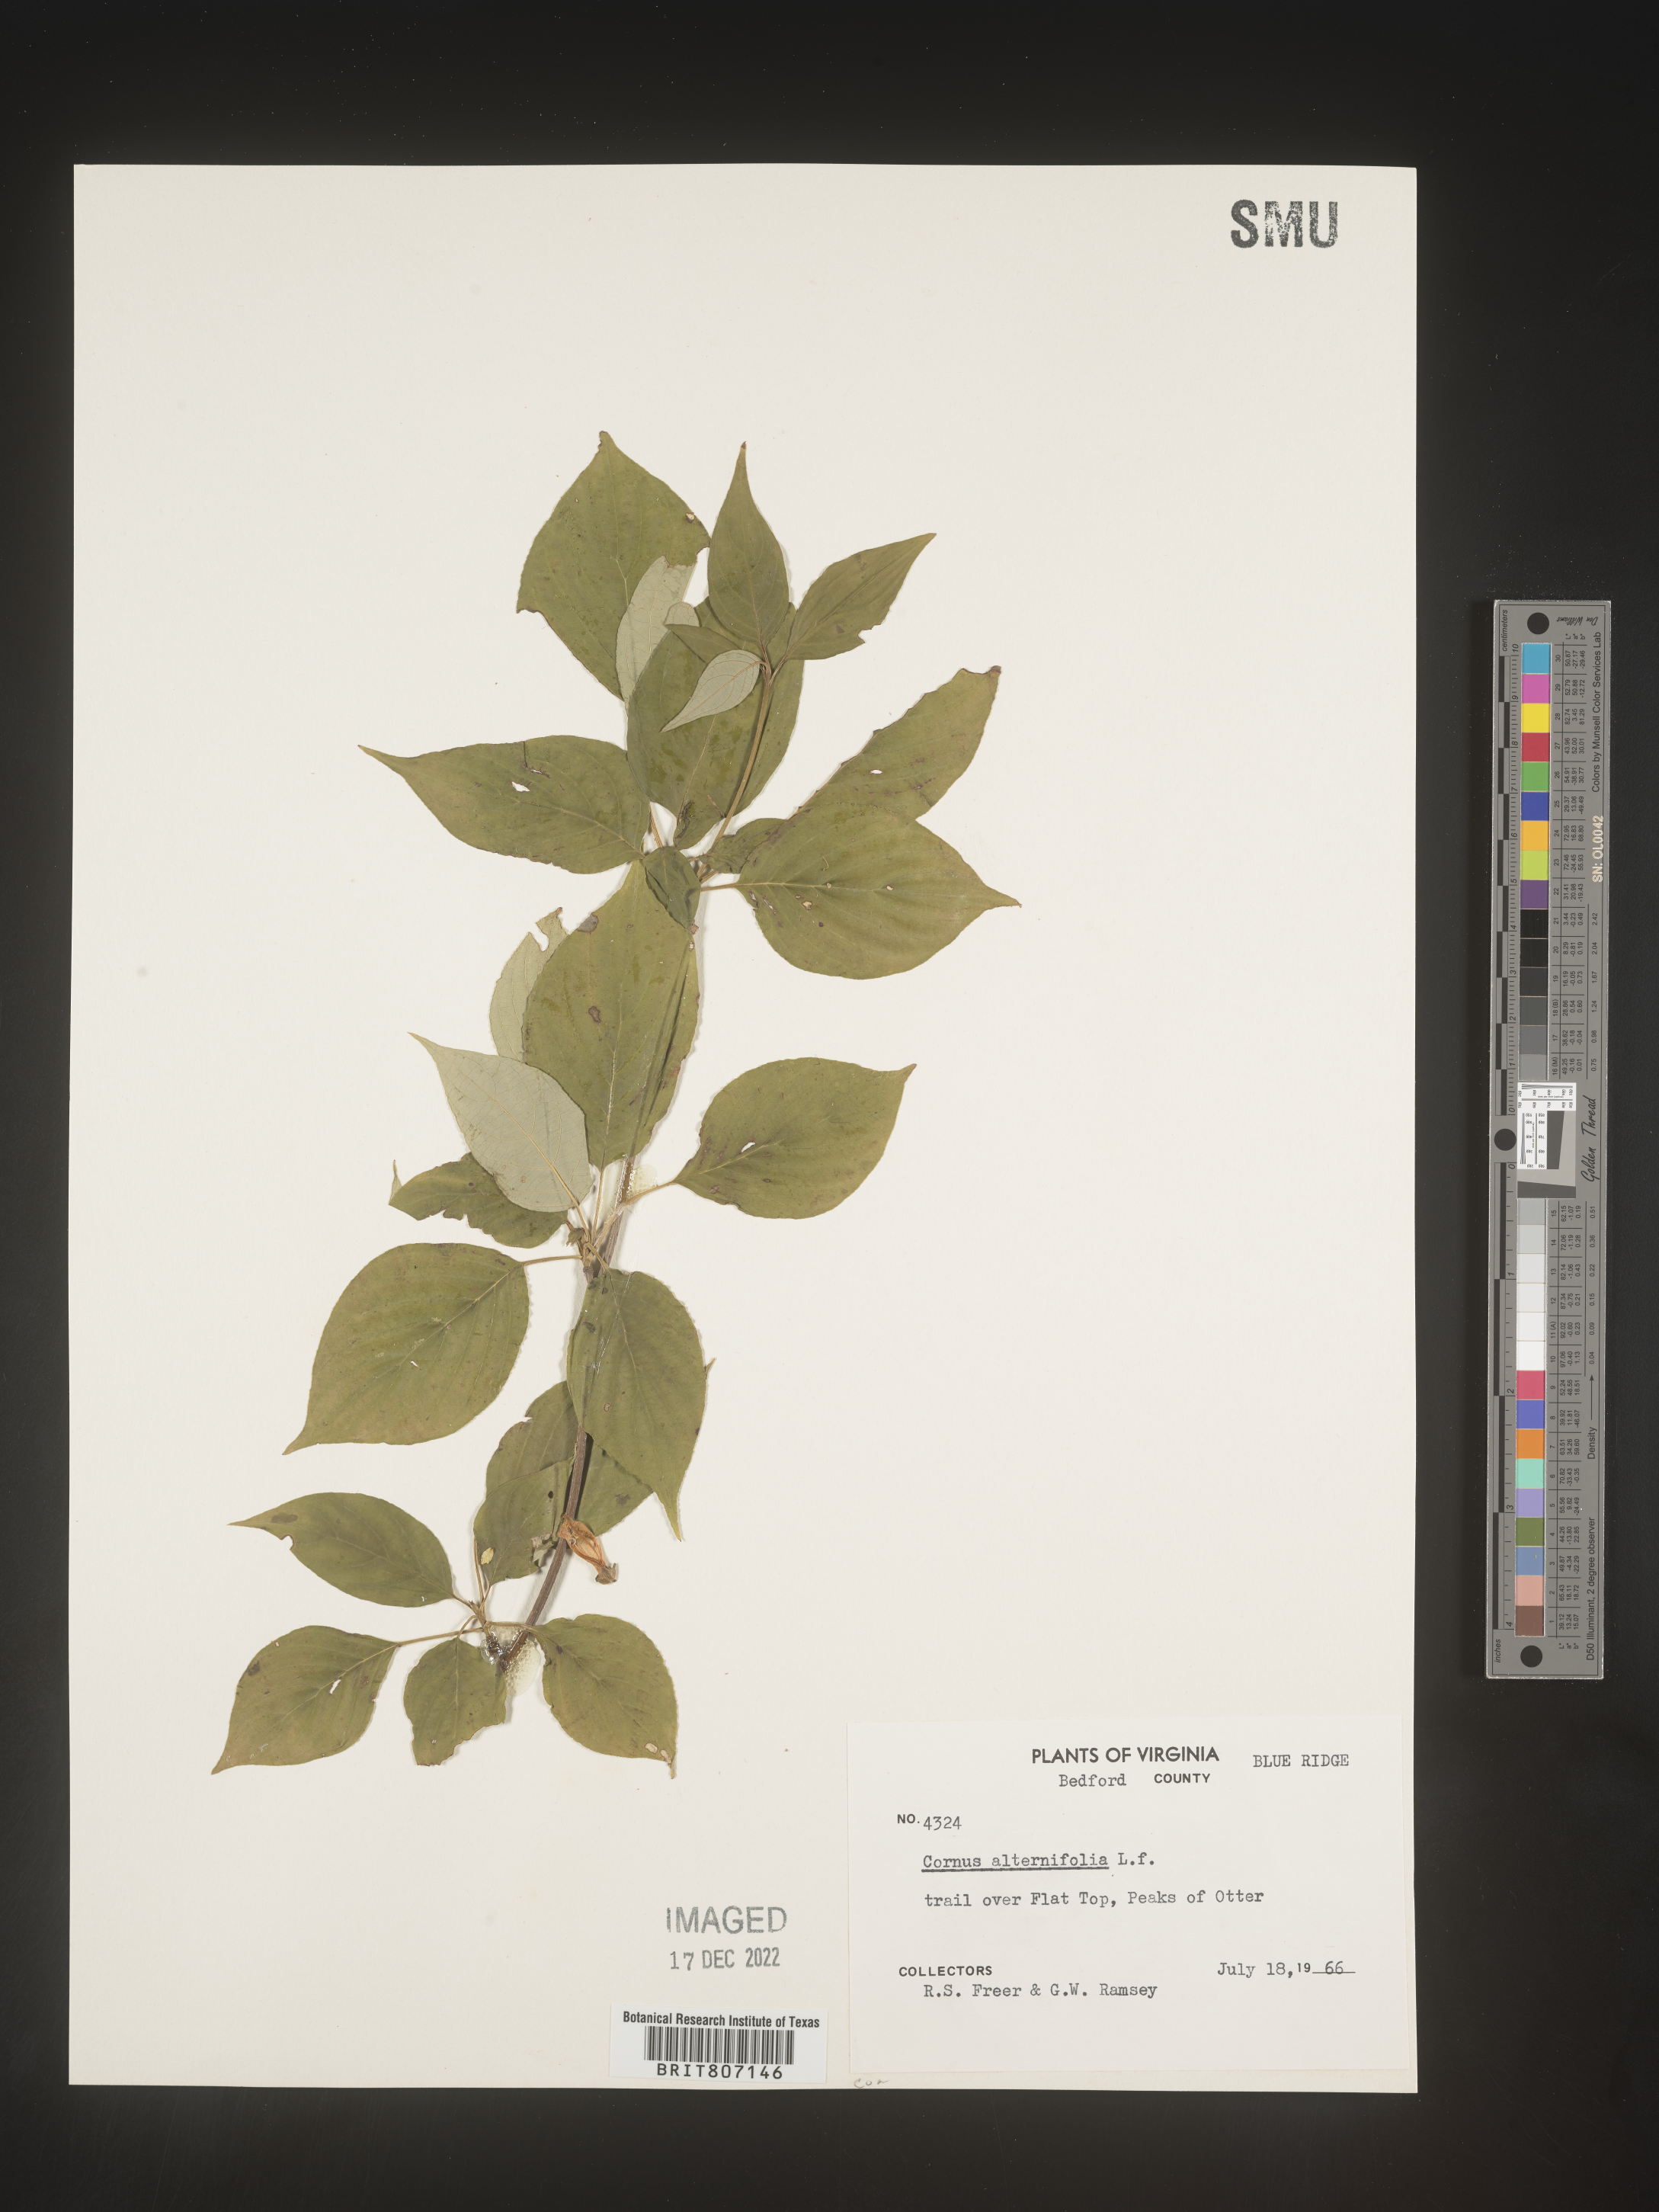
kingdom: Plantae
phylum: Tracheophyta
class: Magnoliopsida
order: Cornales
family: Cornaceae
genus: Cornus
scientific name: Cornus alternifolia
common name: Pagoda dogwood
